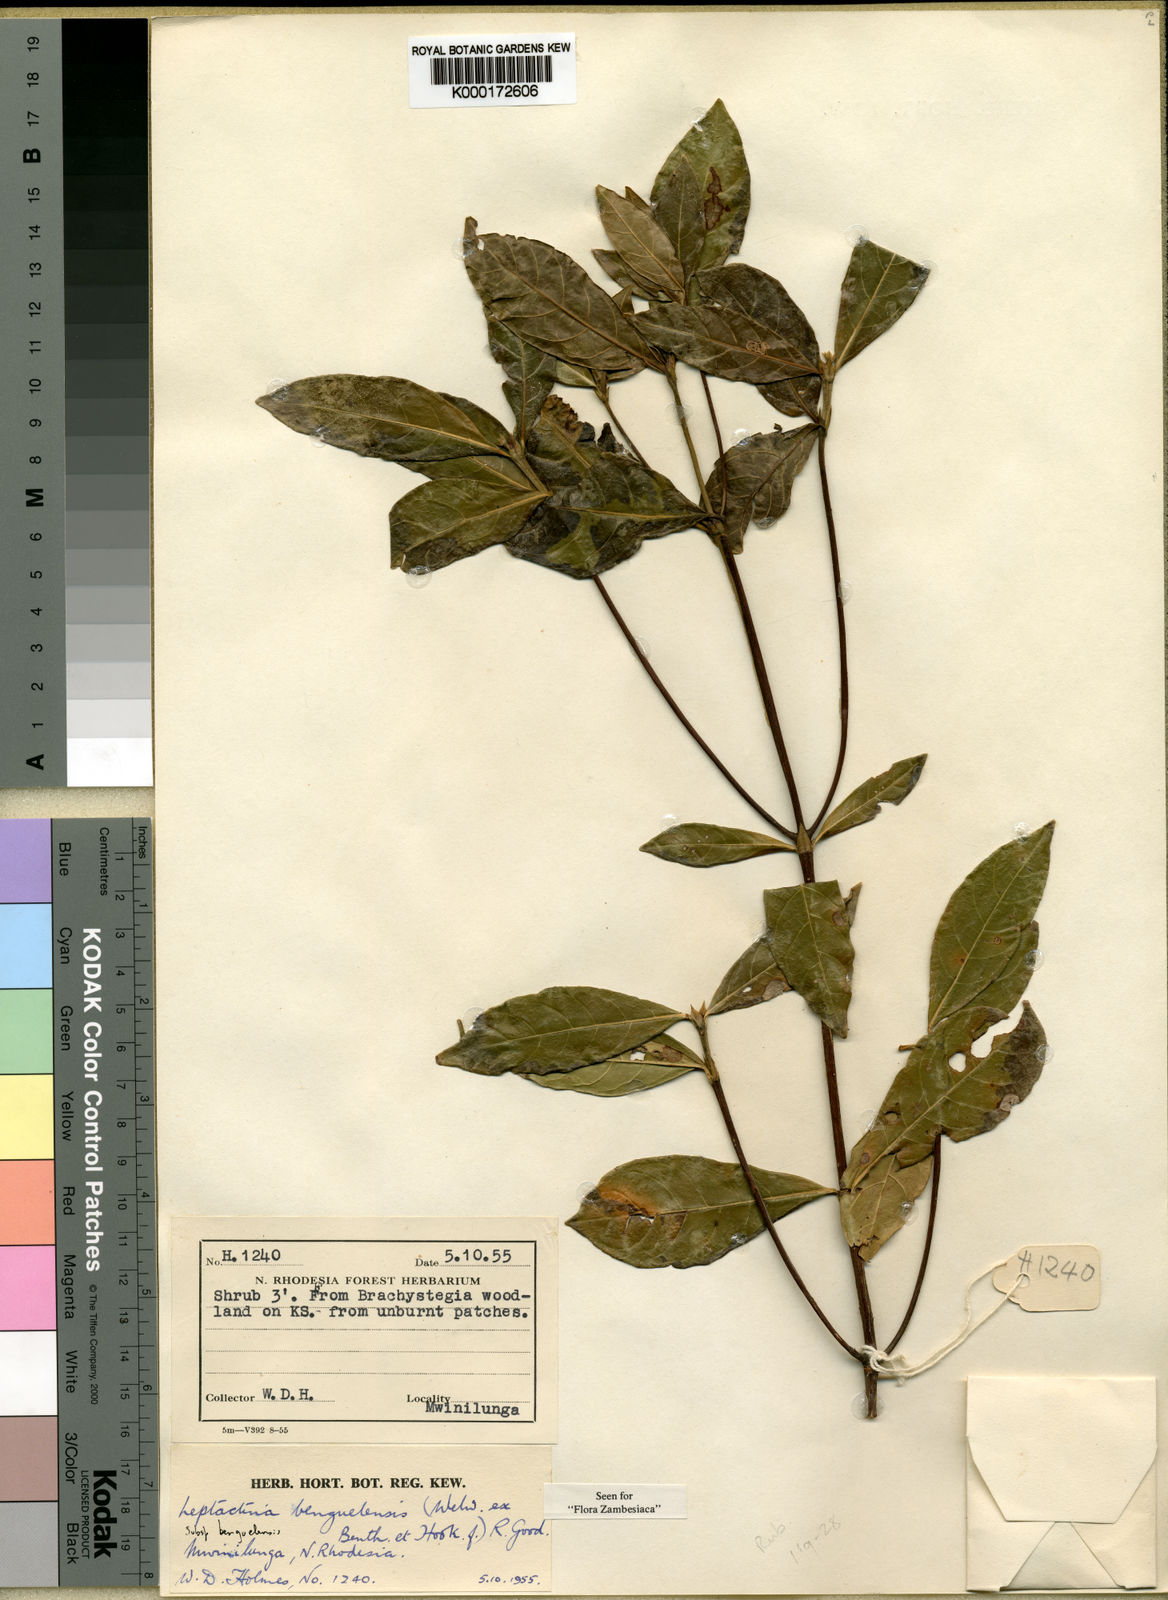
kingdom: Plantae
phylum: Tracheophyta
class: Magnoliopsida
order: Gentianales
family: Rubiaceae
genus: Leptactina
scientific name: Leptactina
